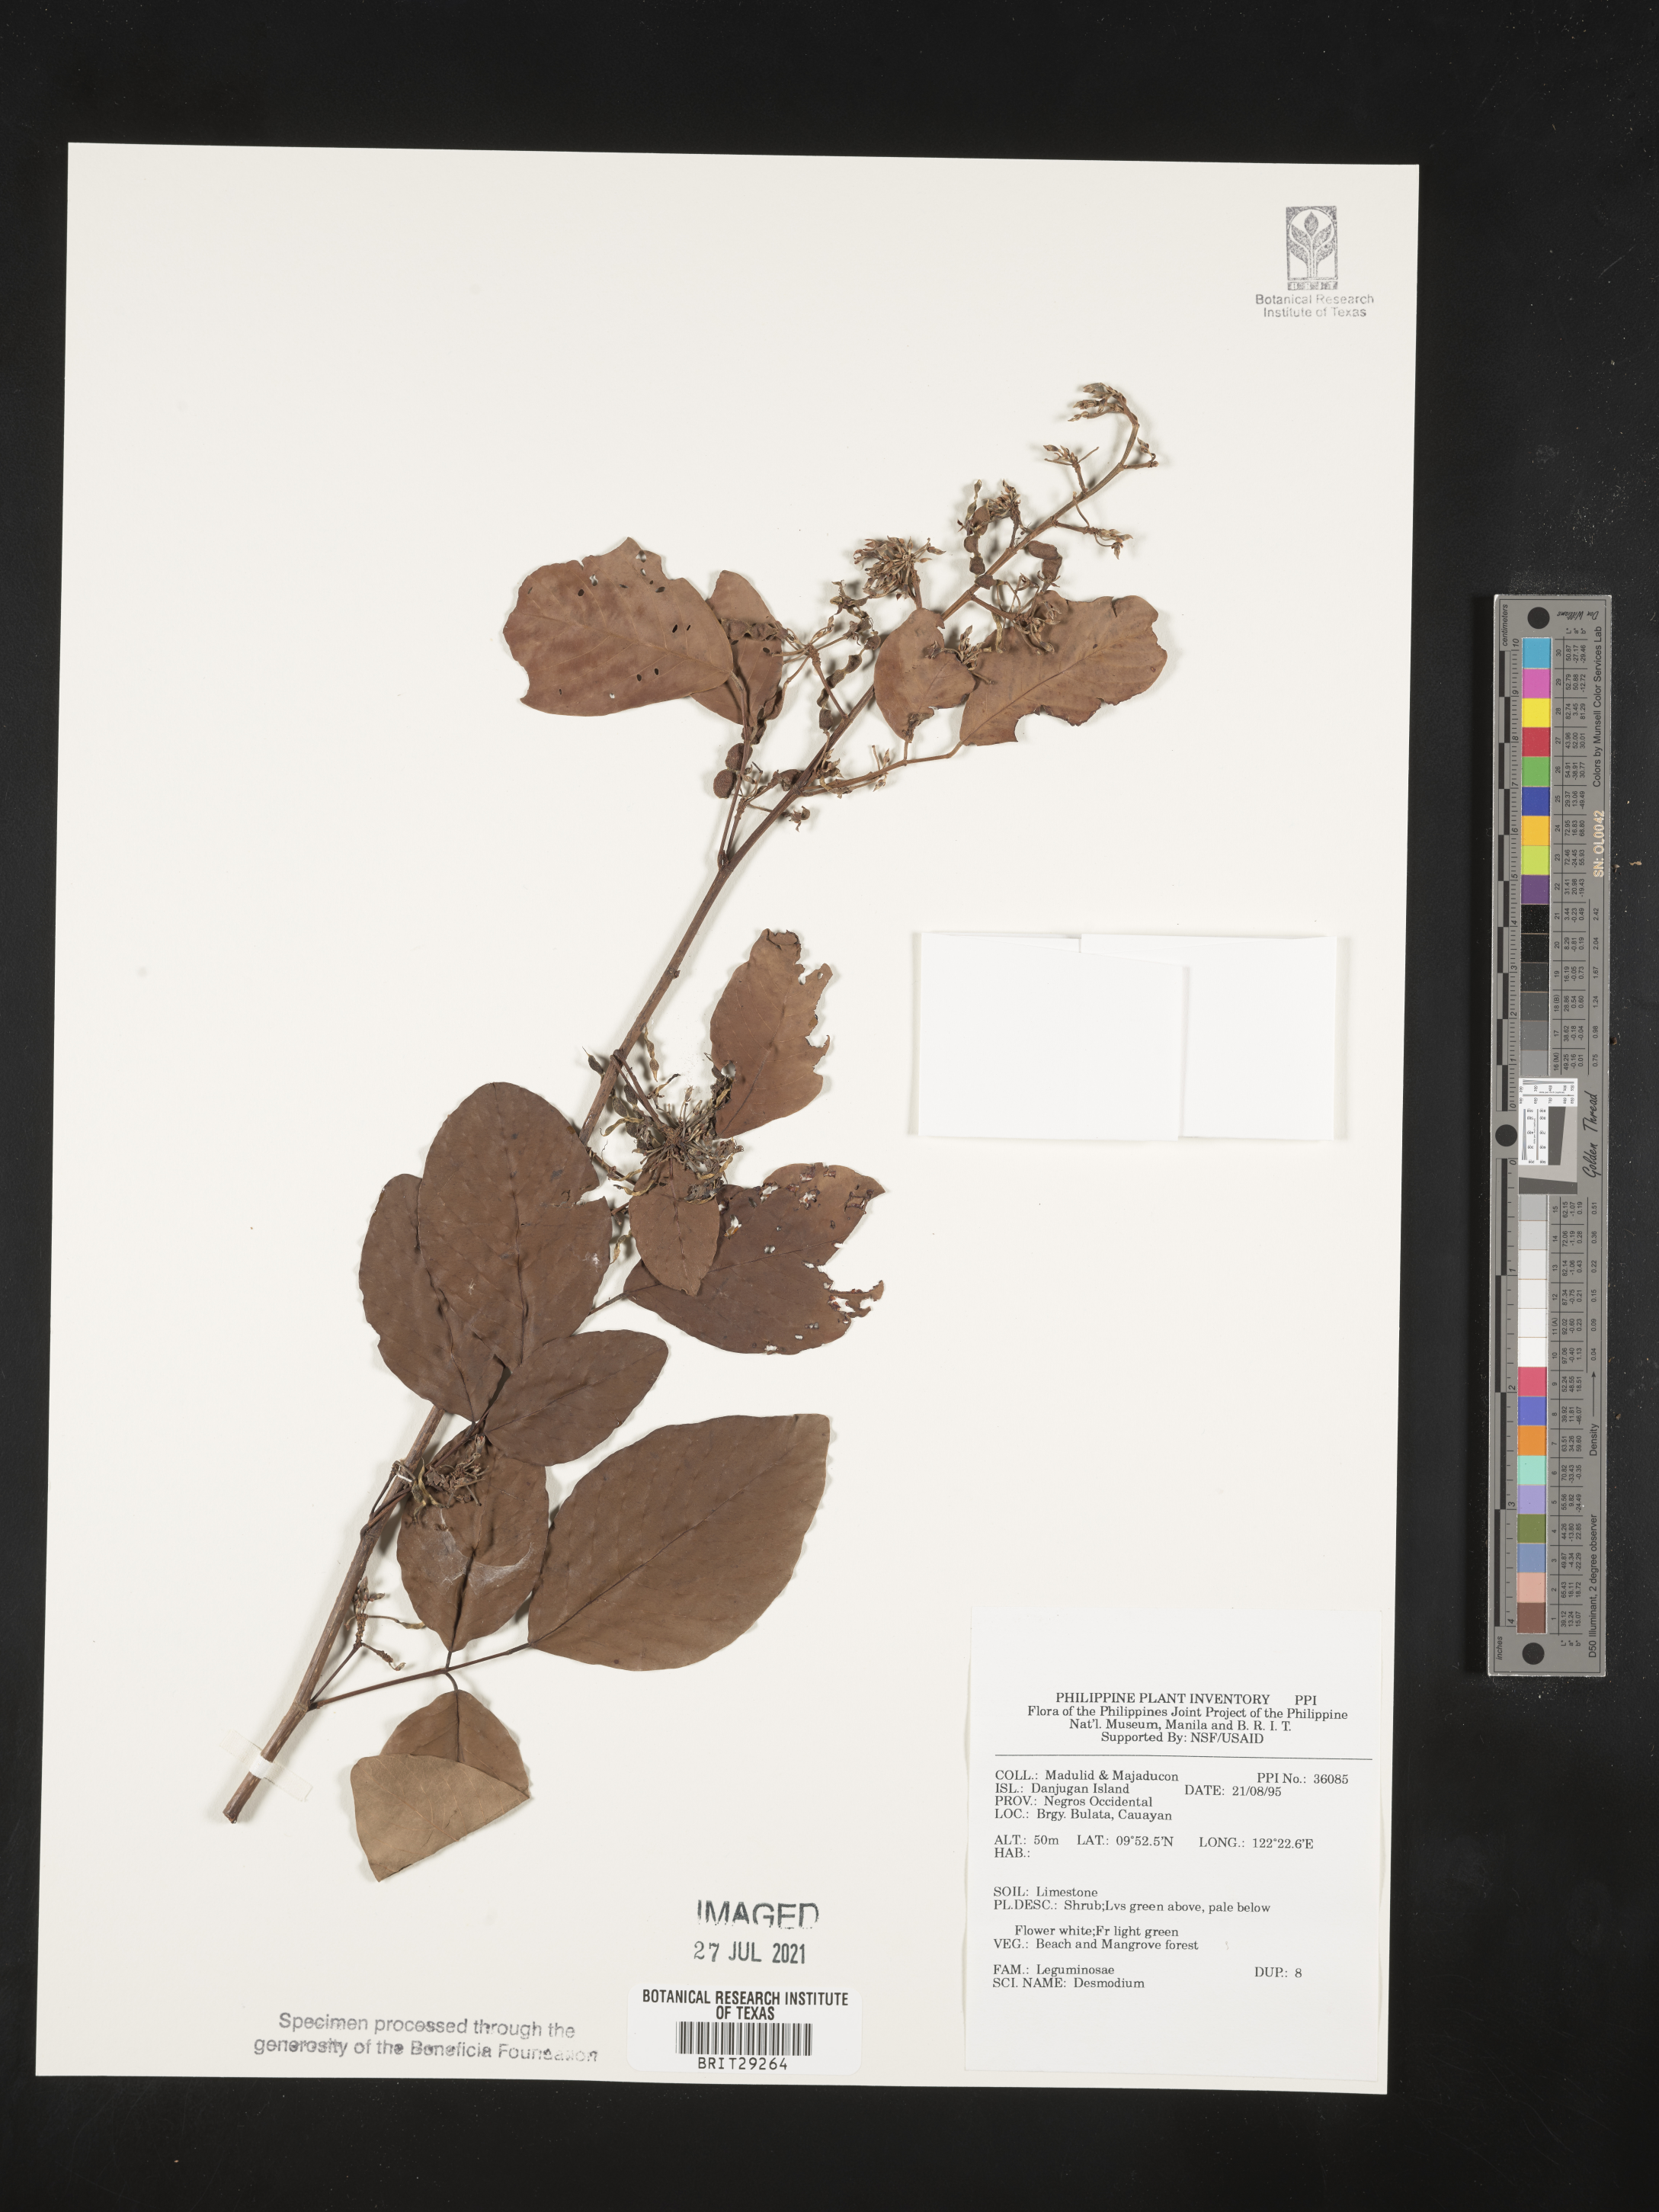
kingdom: Plantae
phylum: Tracheophyta
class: Magnoliopsida
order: Fabales
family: Fabaceae
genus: Desmodium
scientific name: Desmodium
